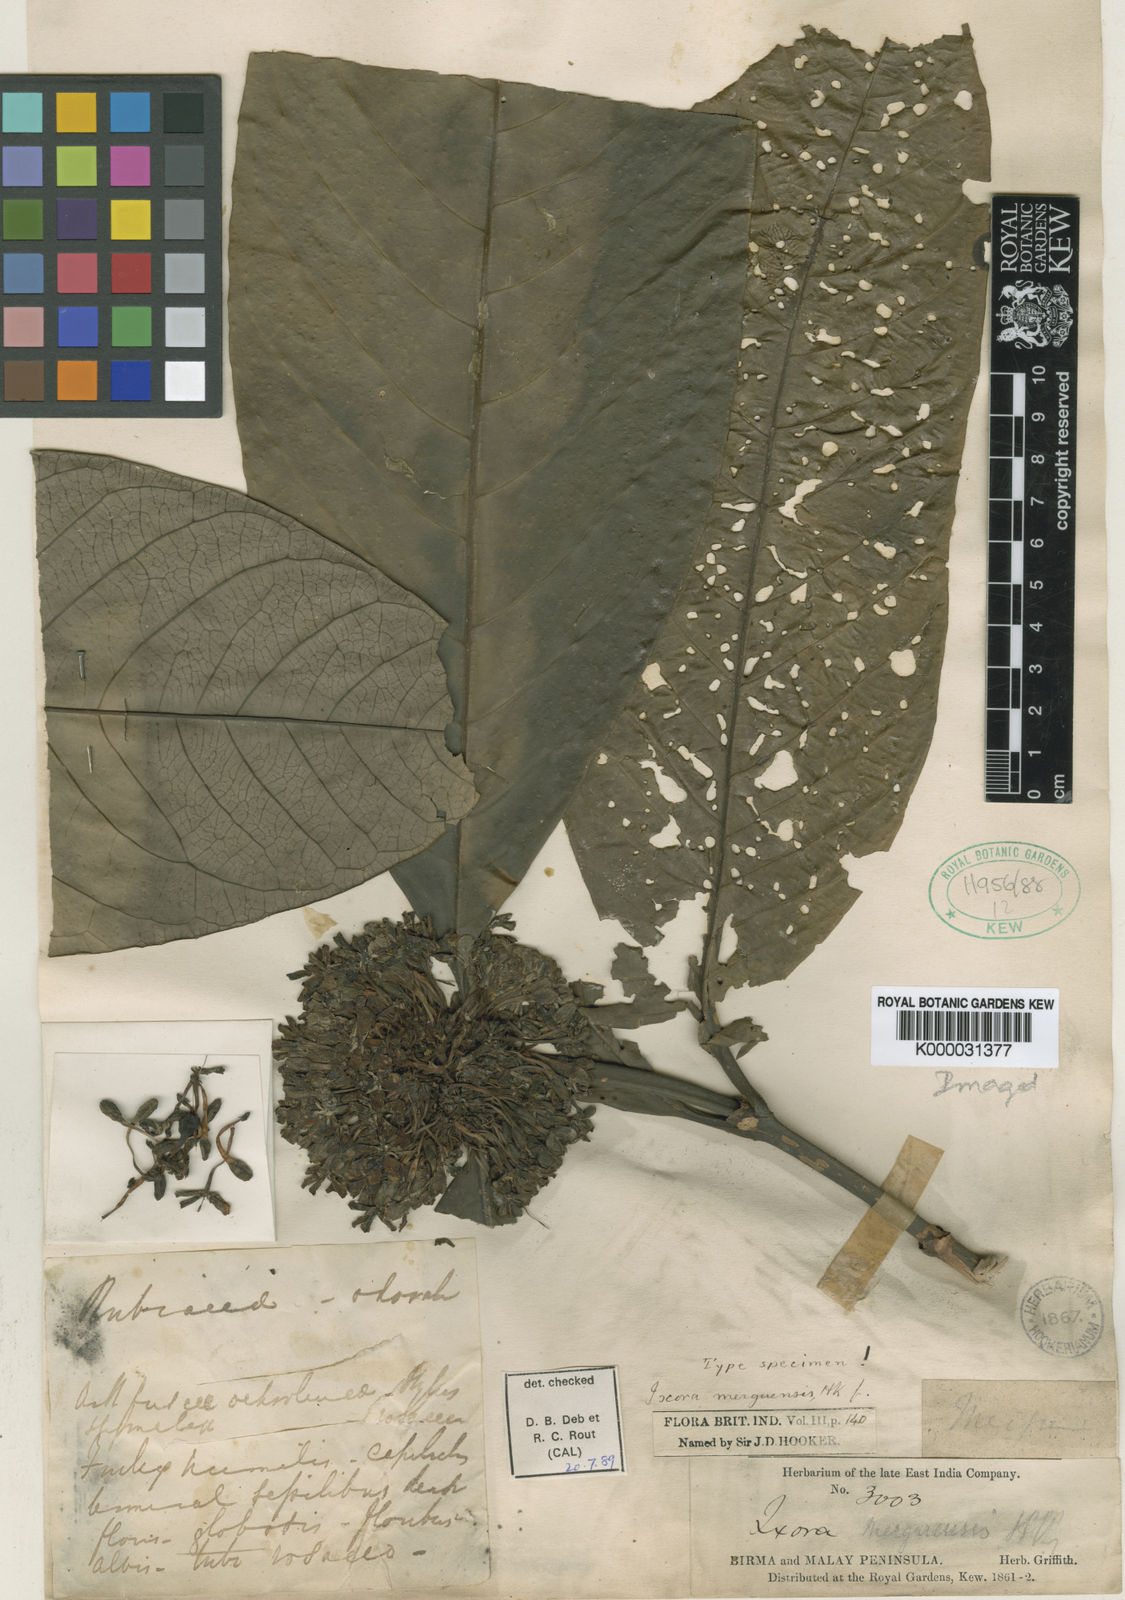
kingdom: Plantae
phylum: Tracheophyta
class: Magnoliopsida
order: Gentianales
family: Rubiaceae
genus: Ixora
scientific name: Ixora merguensis
